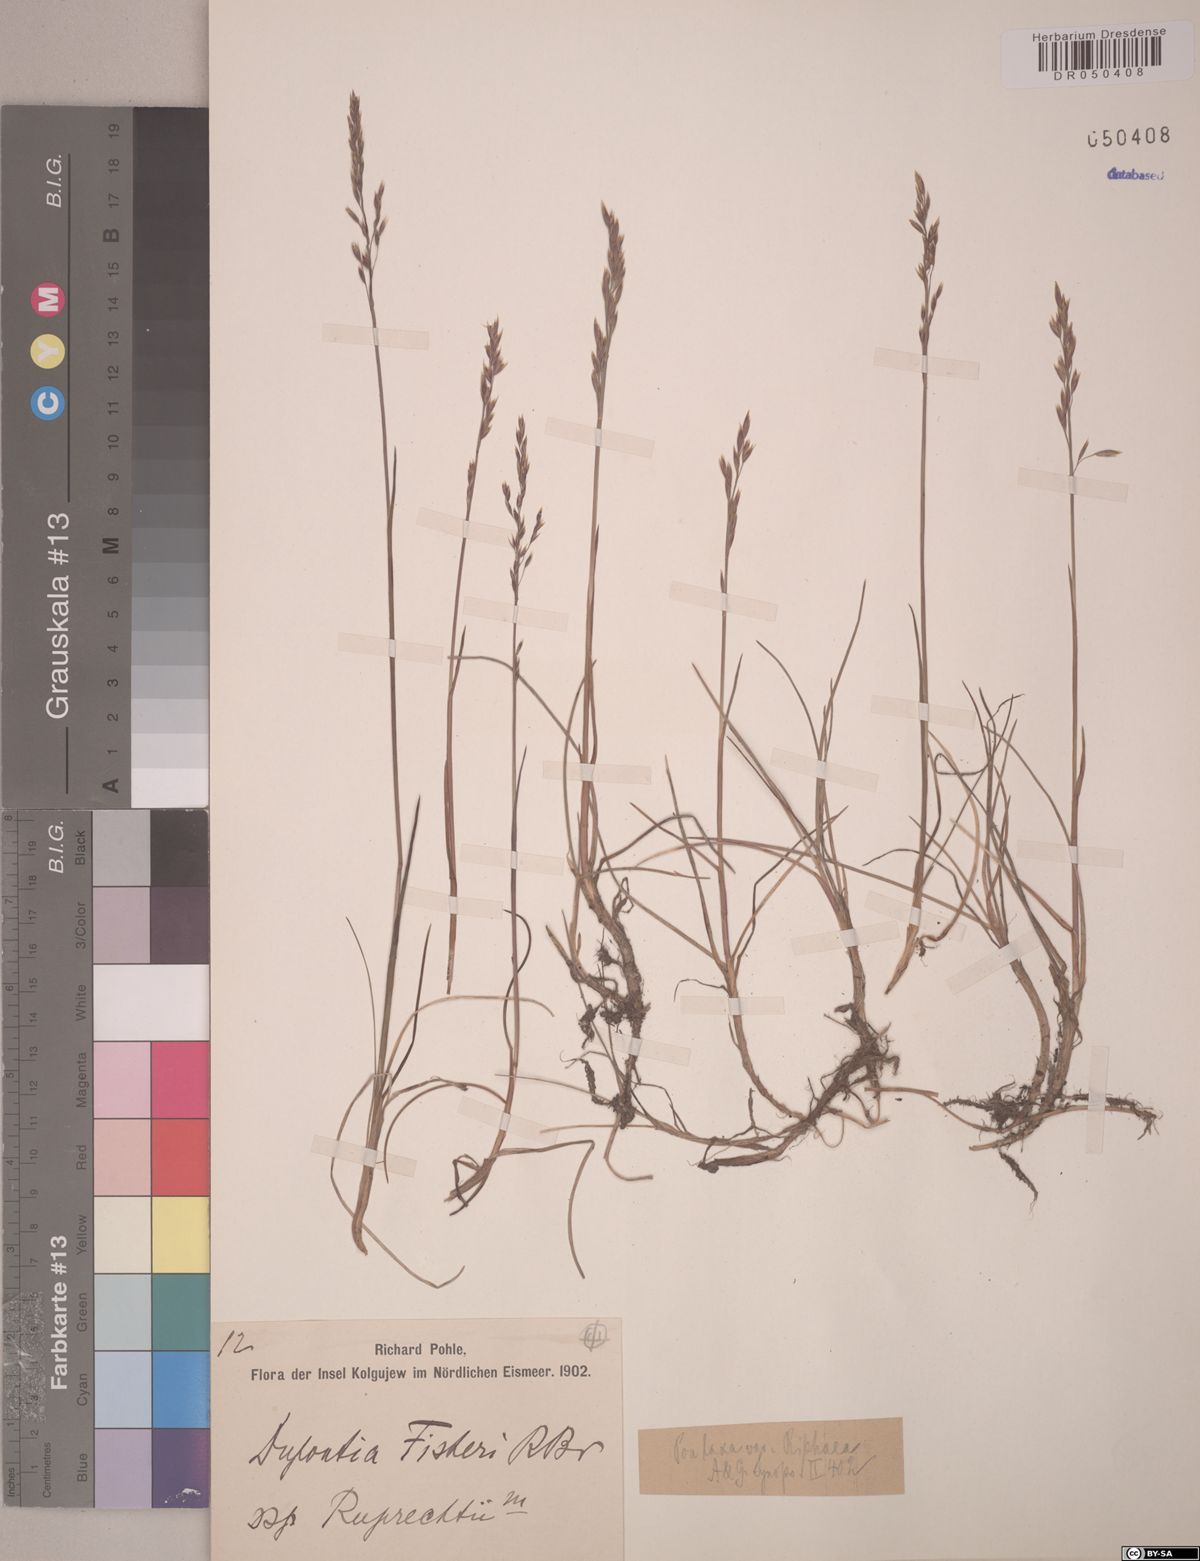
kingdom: Plantae
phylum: Tracheophyta
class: Liliopsida
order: Poales
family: Poaceae
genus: Poa
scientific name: Poa riphaea
